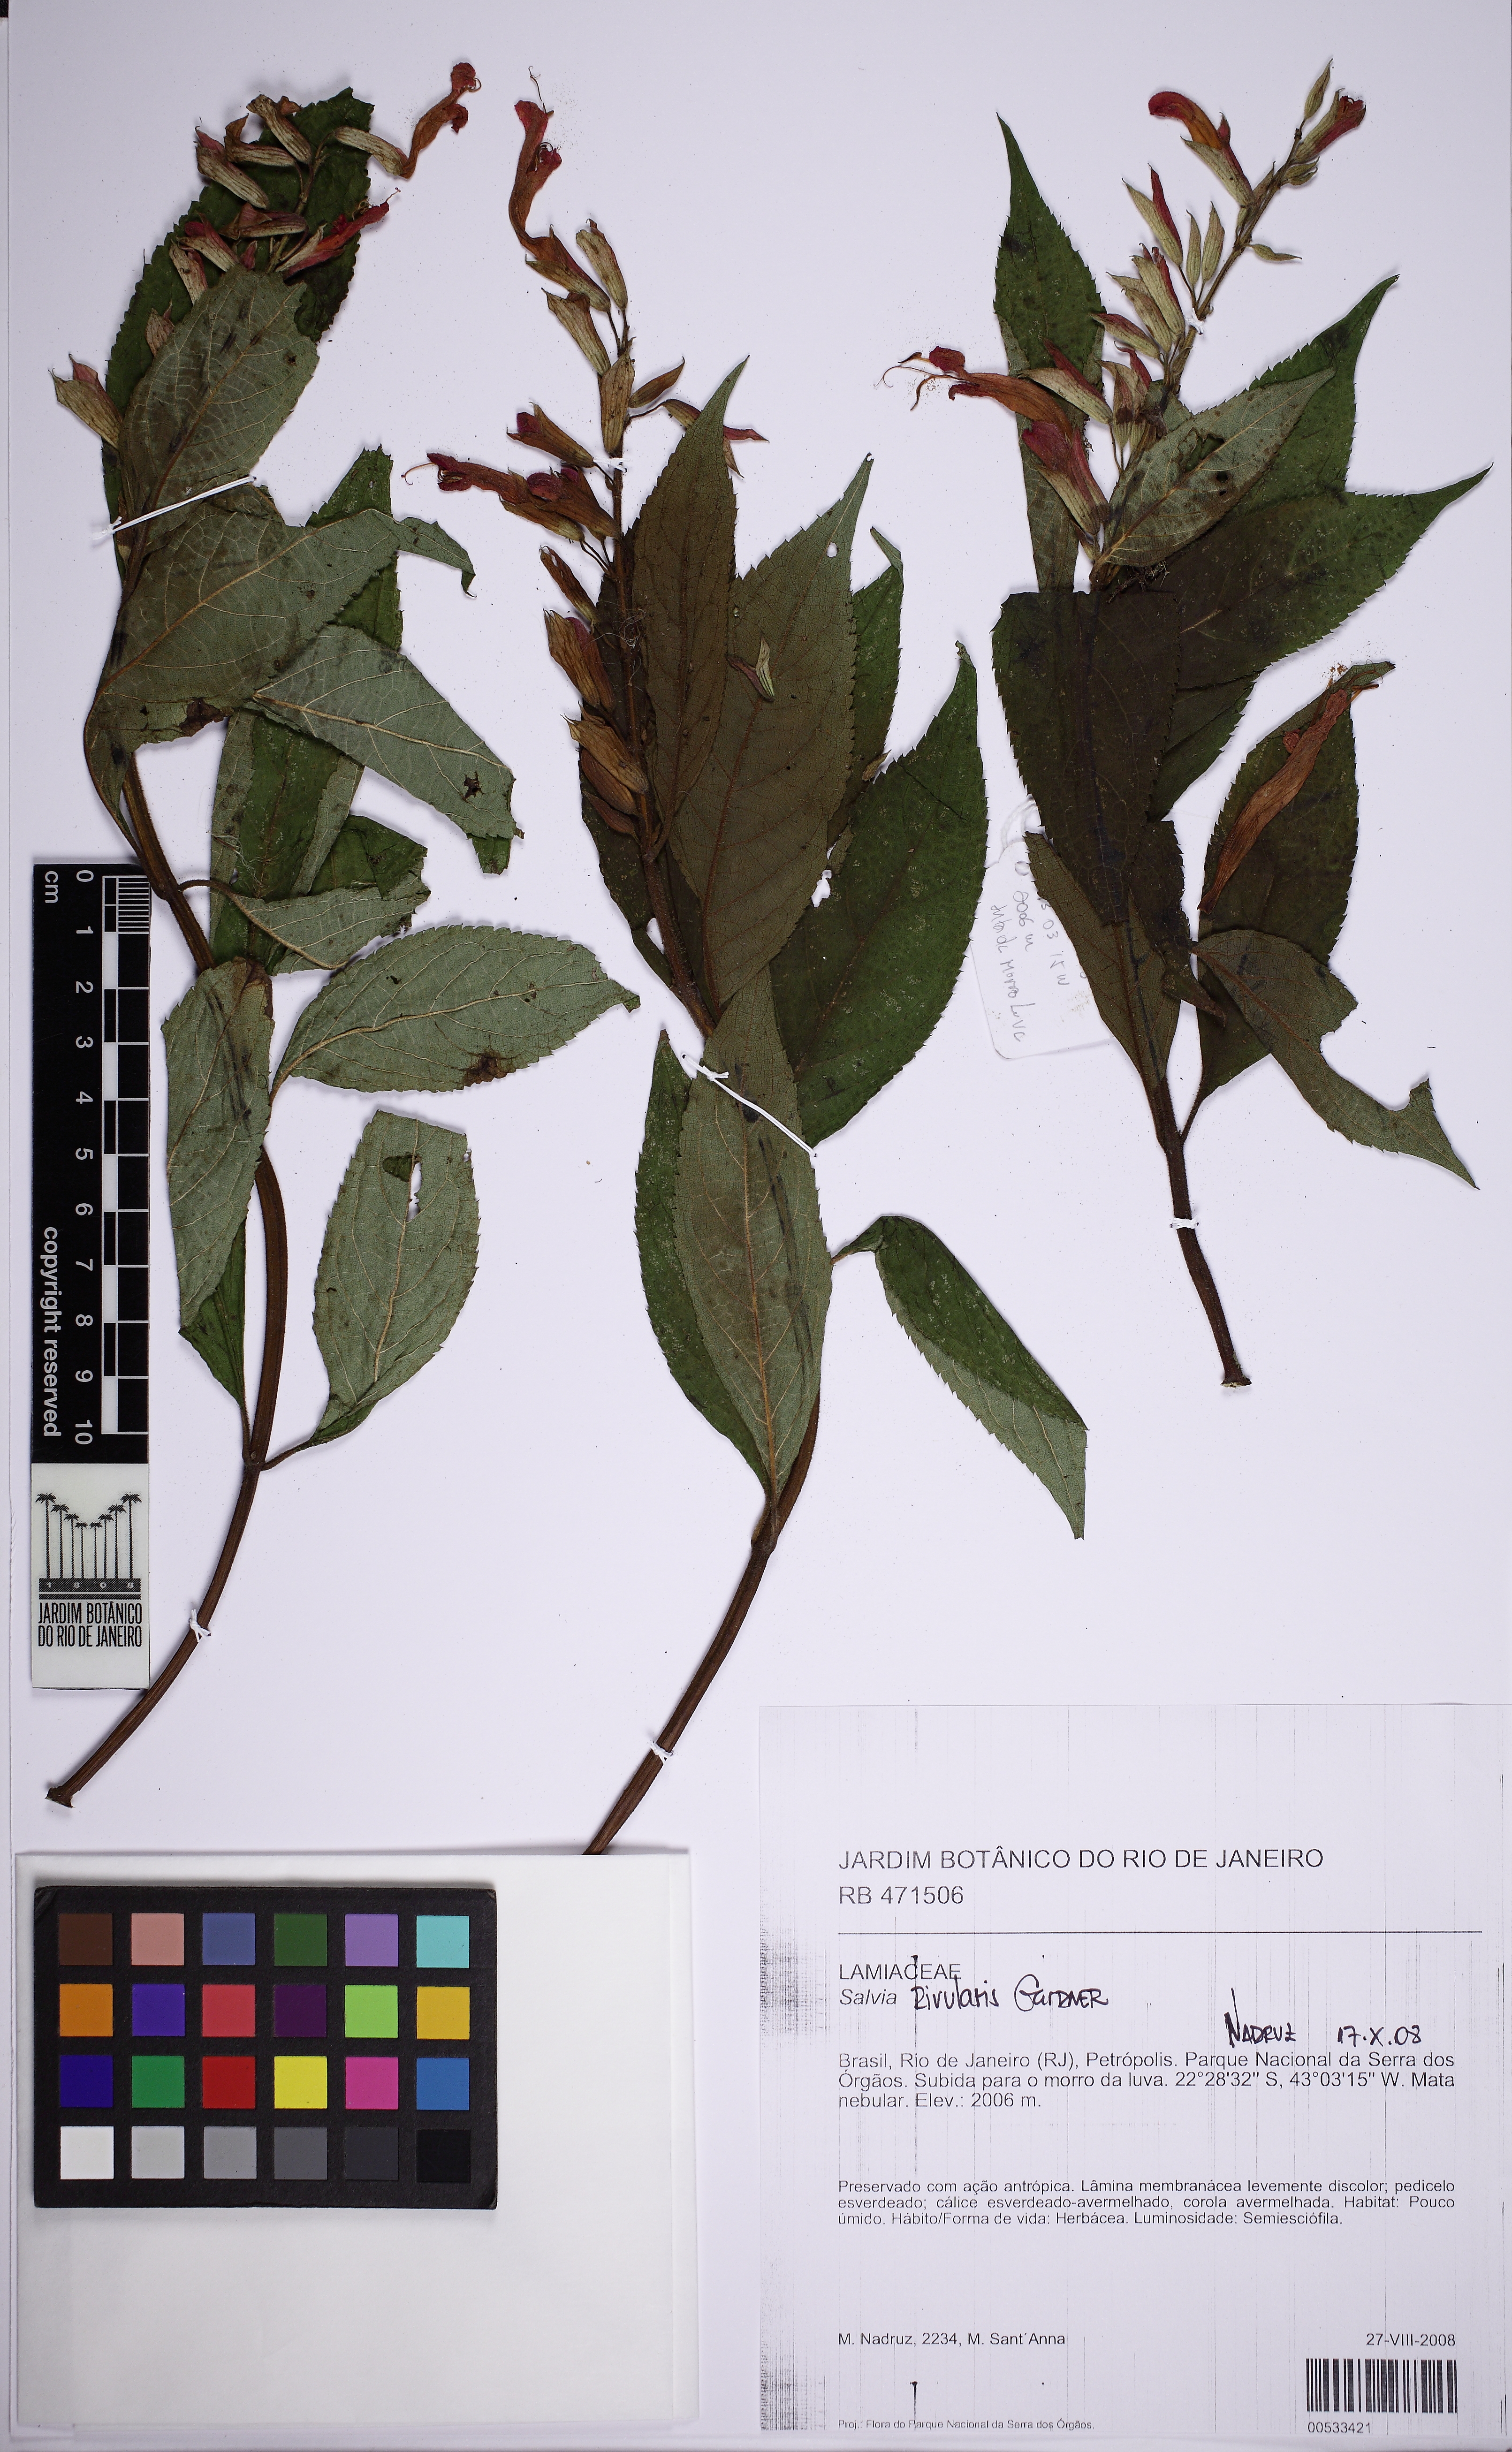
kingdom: Plantae
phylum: Tracheophyta
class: Magnoliopsida
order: Lamiales
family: Lamiaceae
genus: Salvia
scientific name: Salvia rivularis
